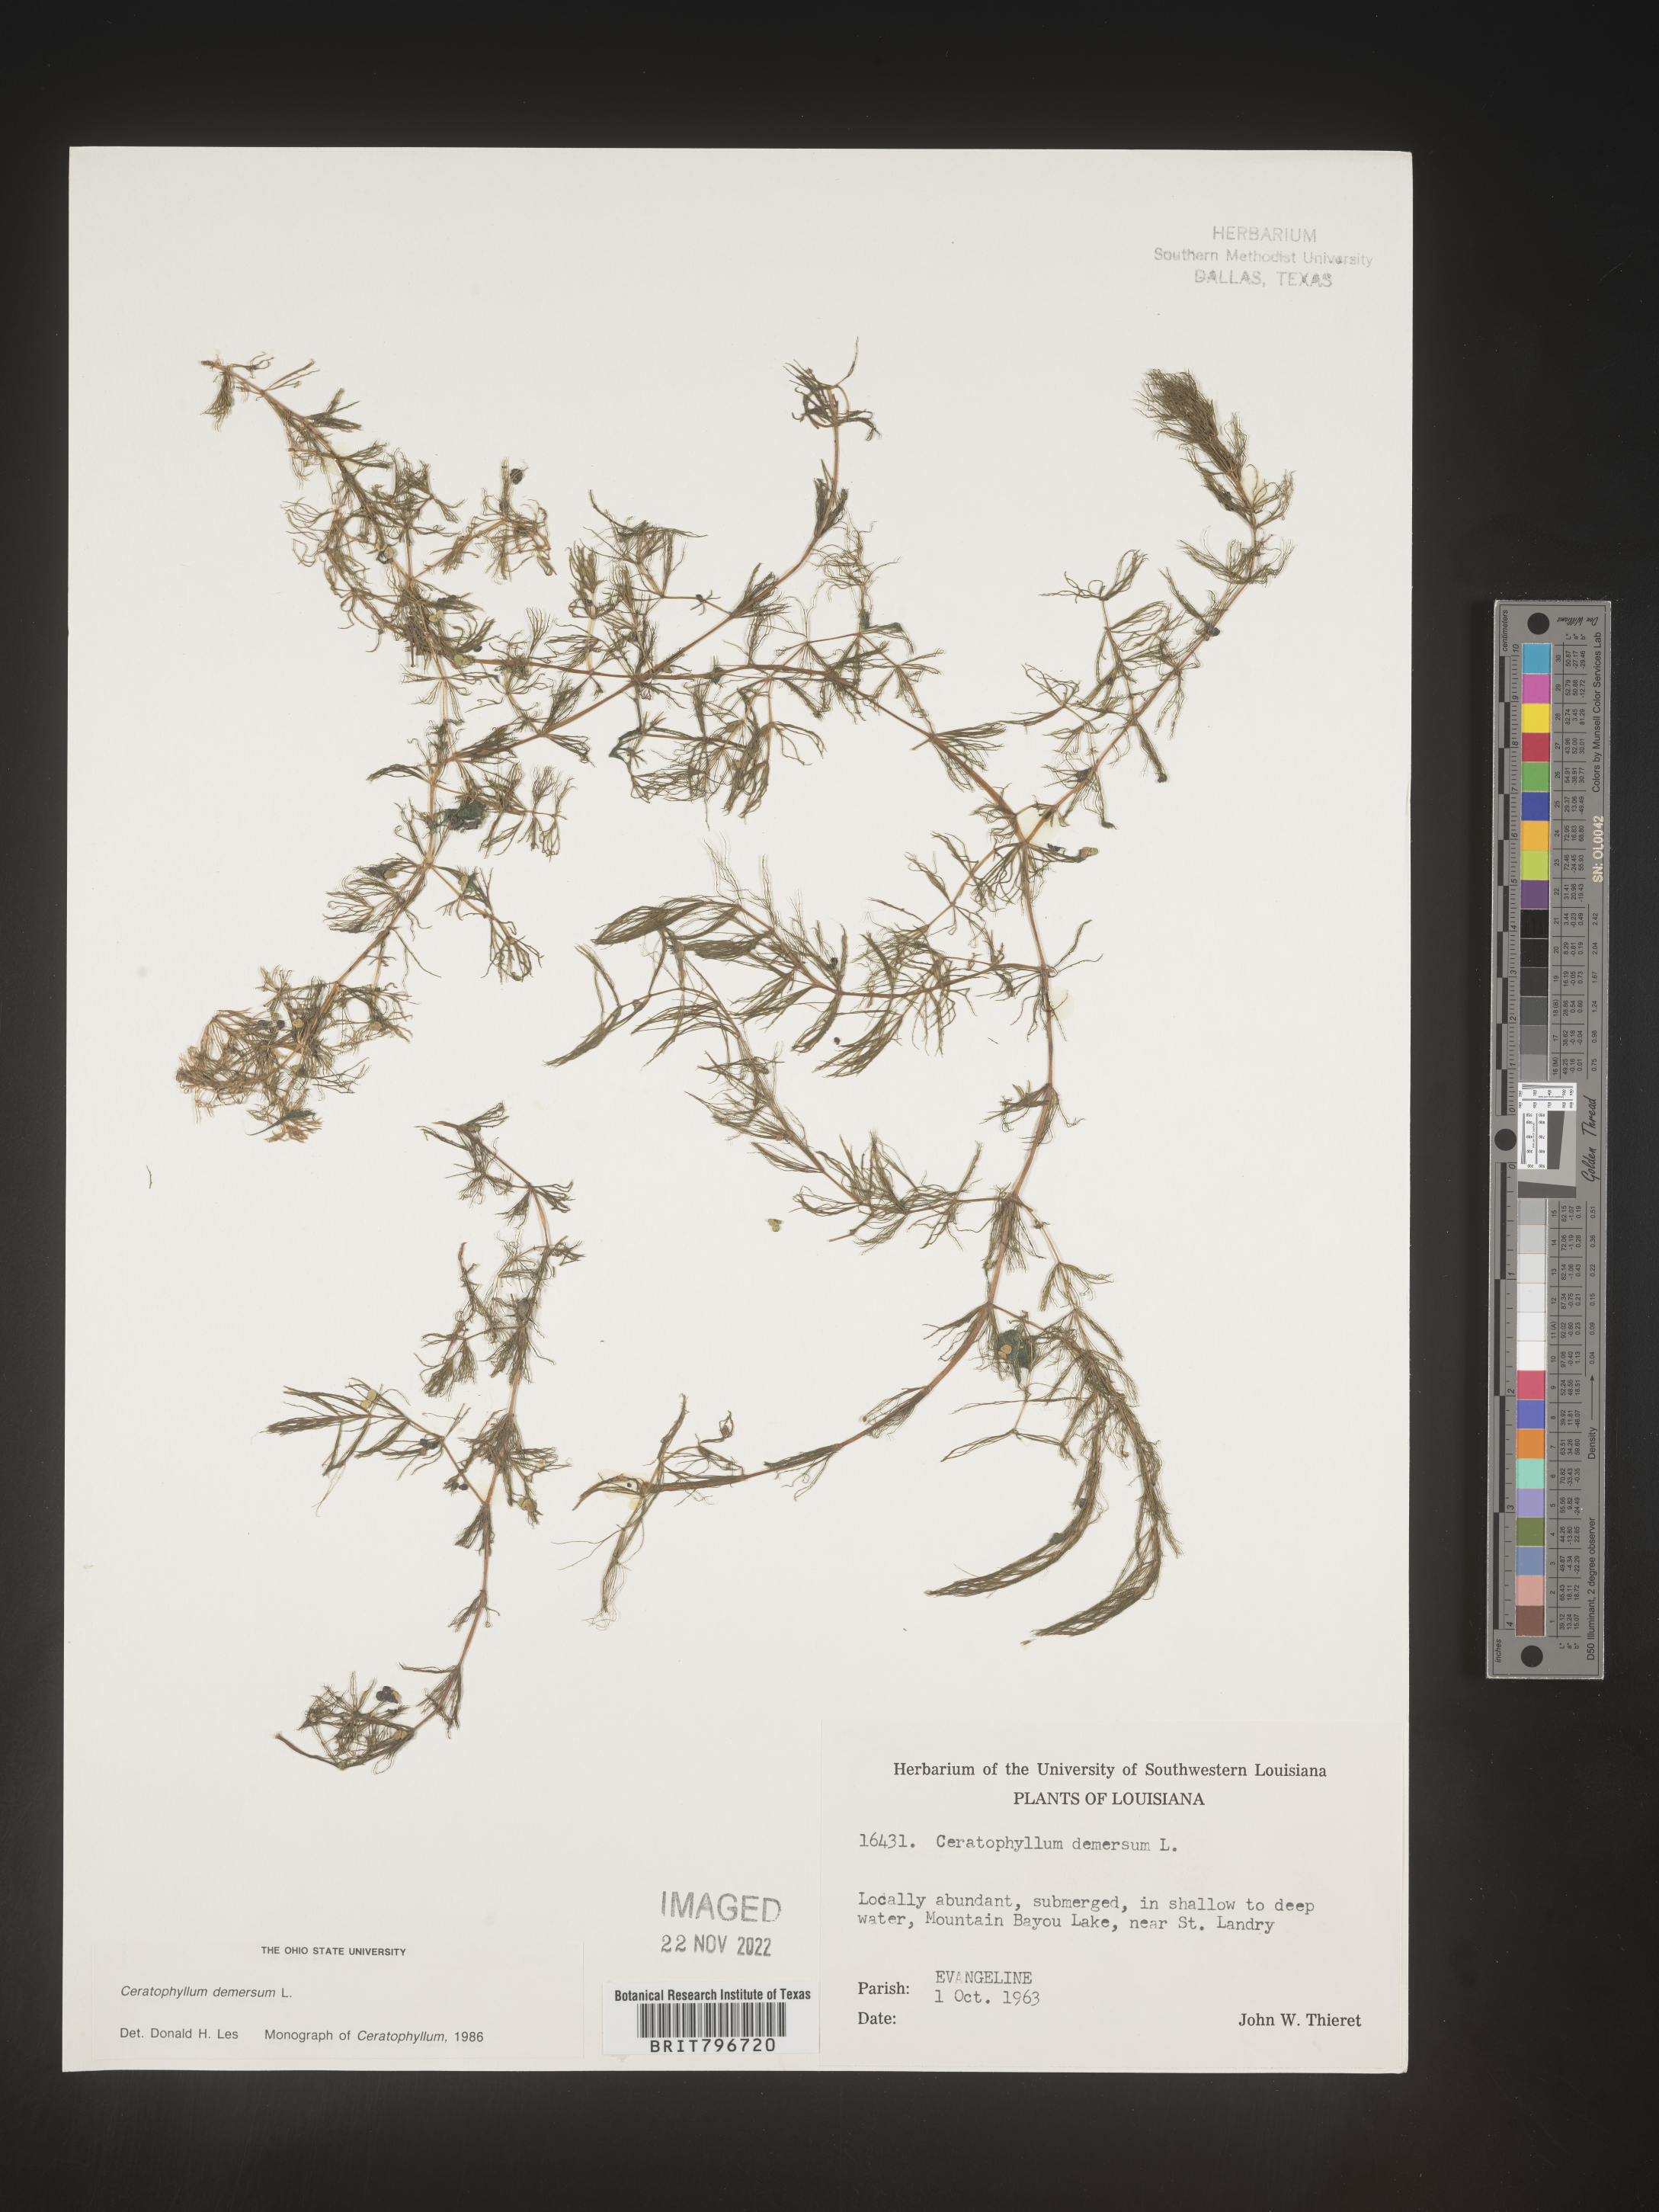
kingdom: Plantae
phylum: Tracheophyta
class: Magnoliopsida
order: Ceratophyllales
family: Ceratophyllaceae
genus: Ceratophyllum
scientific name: Ceratophyllum demersum
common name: Rigid hornwort
